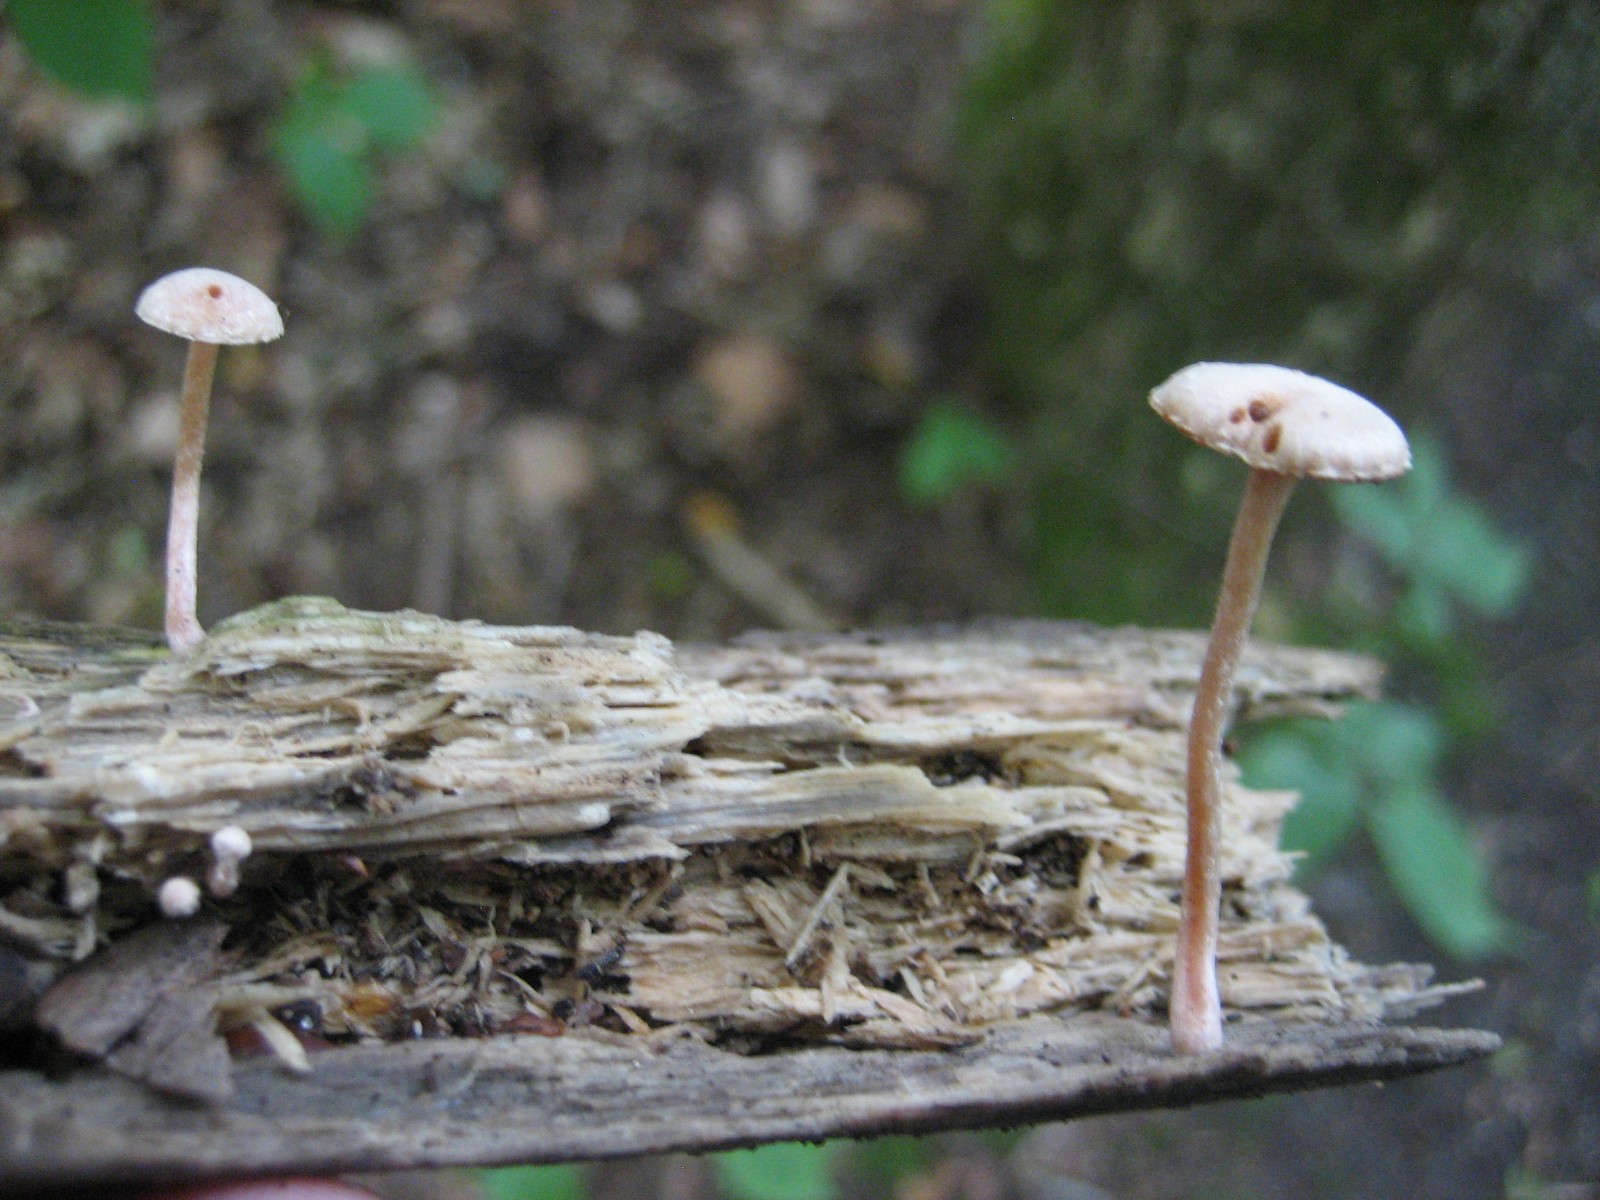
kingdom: Fungi
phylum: Basidiomycota
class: Agaricomycetes
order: Agaricales
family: Tubariaceae
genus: Tubaria
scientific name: Tubaria conspersa
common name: bleg fnughat
